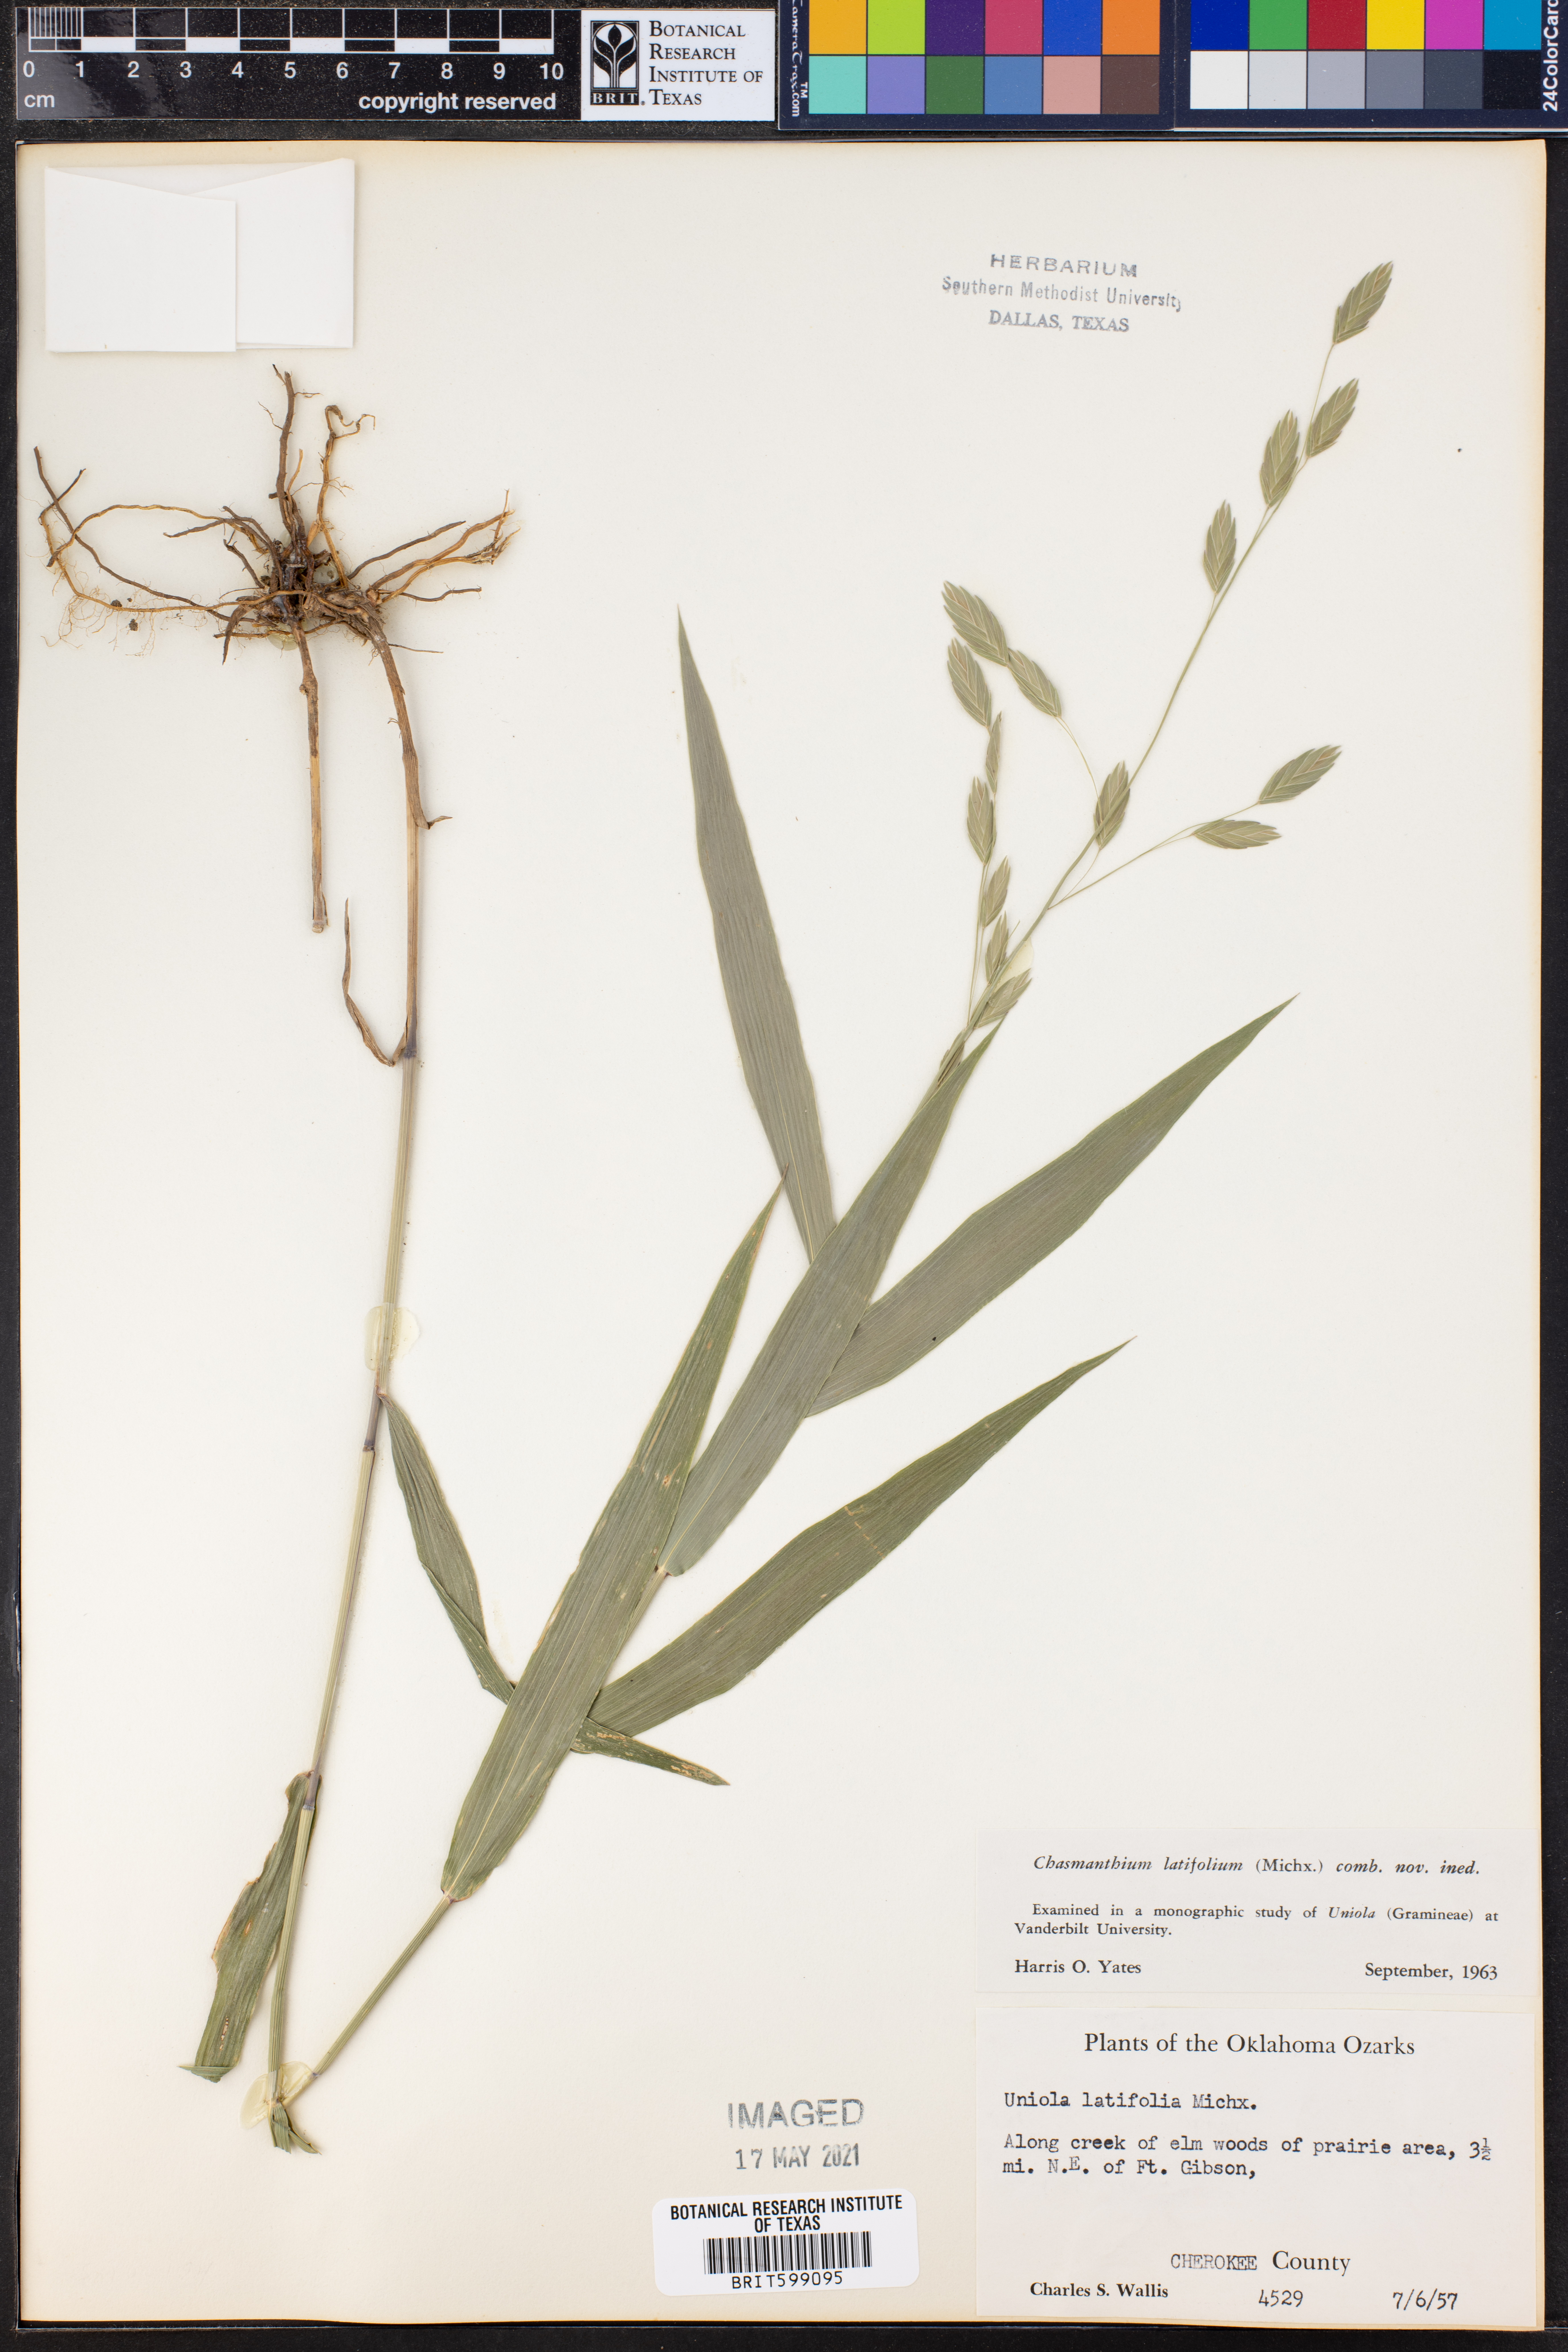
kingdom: Plantae
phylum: Tracheophyta
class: Liliopsida
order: Poales
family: Poaceae
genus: Chasmanthium
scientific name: Chasmanthium latifolium
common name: Broad-leaved chasmanthium
